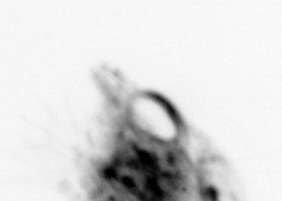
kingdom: Animalia
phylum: Arthropoda
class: Malacostraca
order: Decapoda
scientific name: Decapoda
